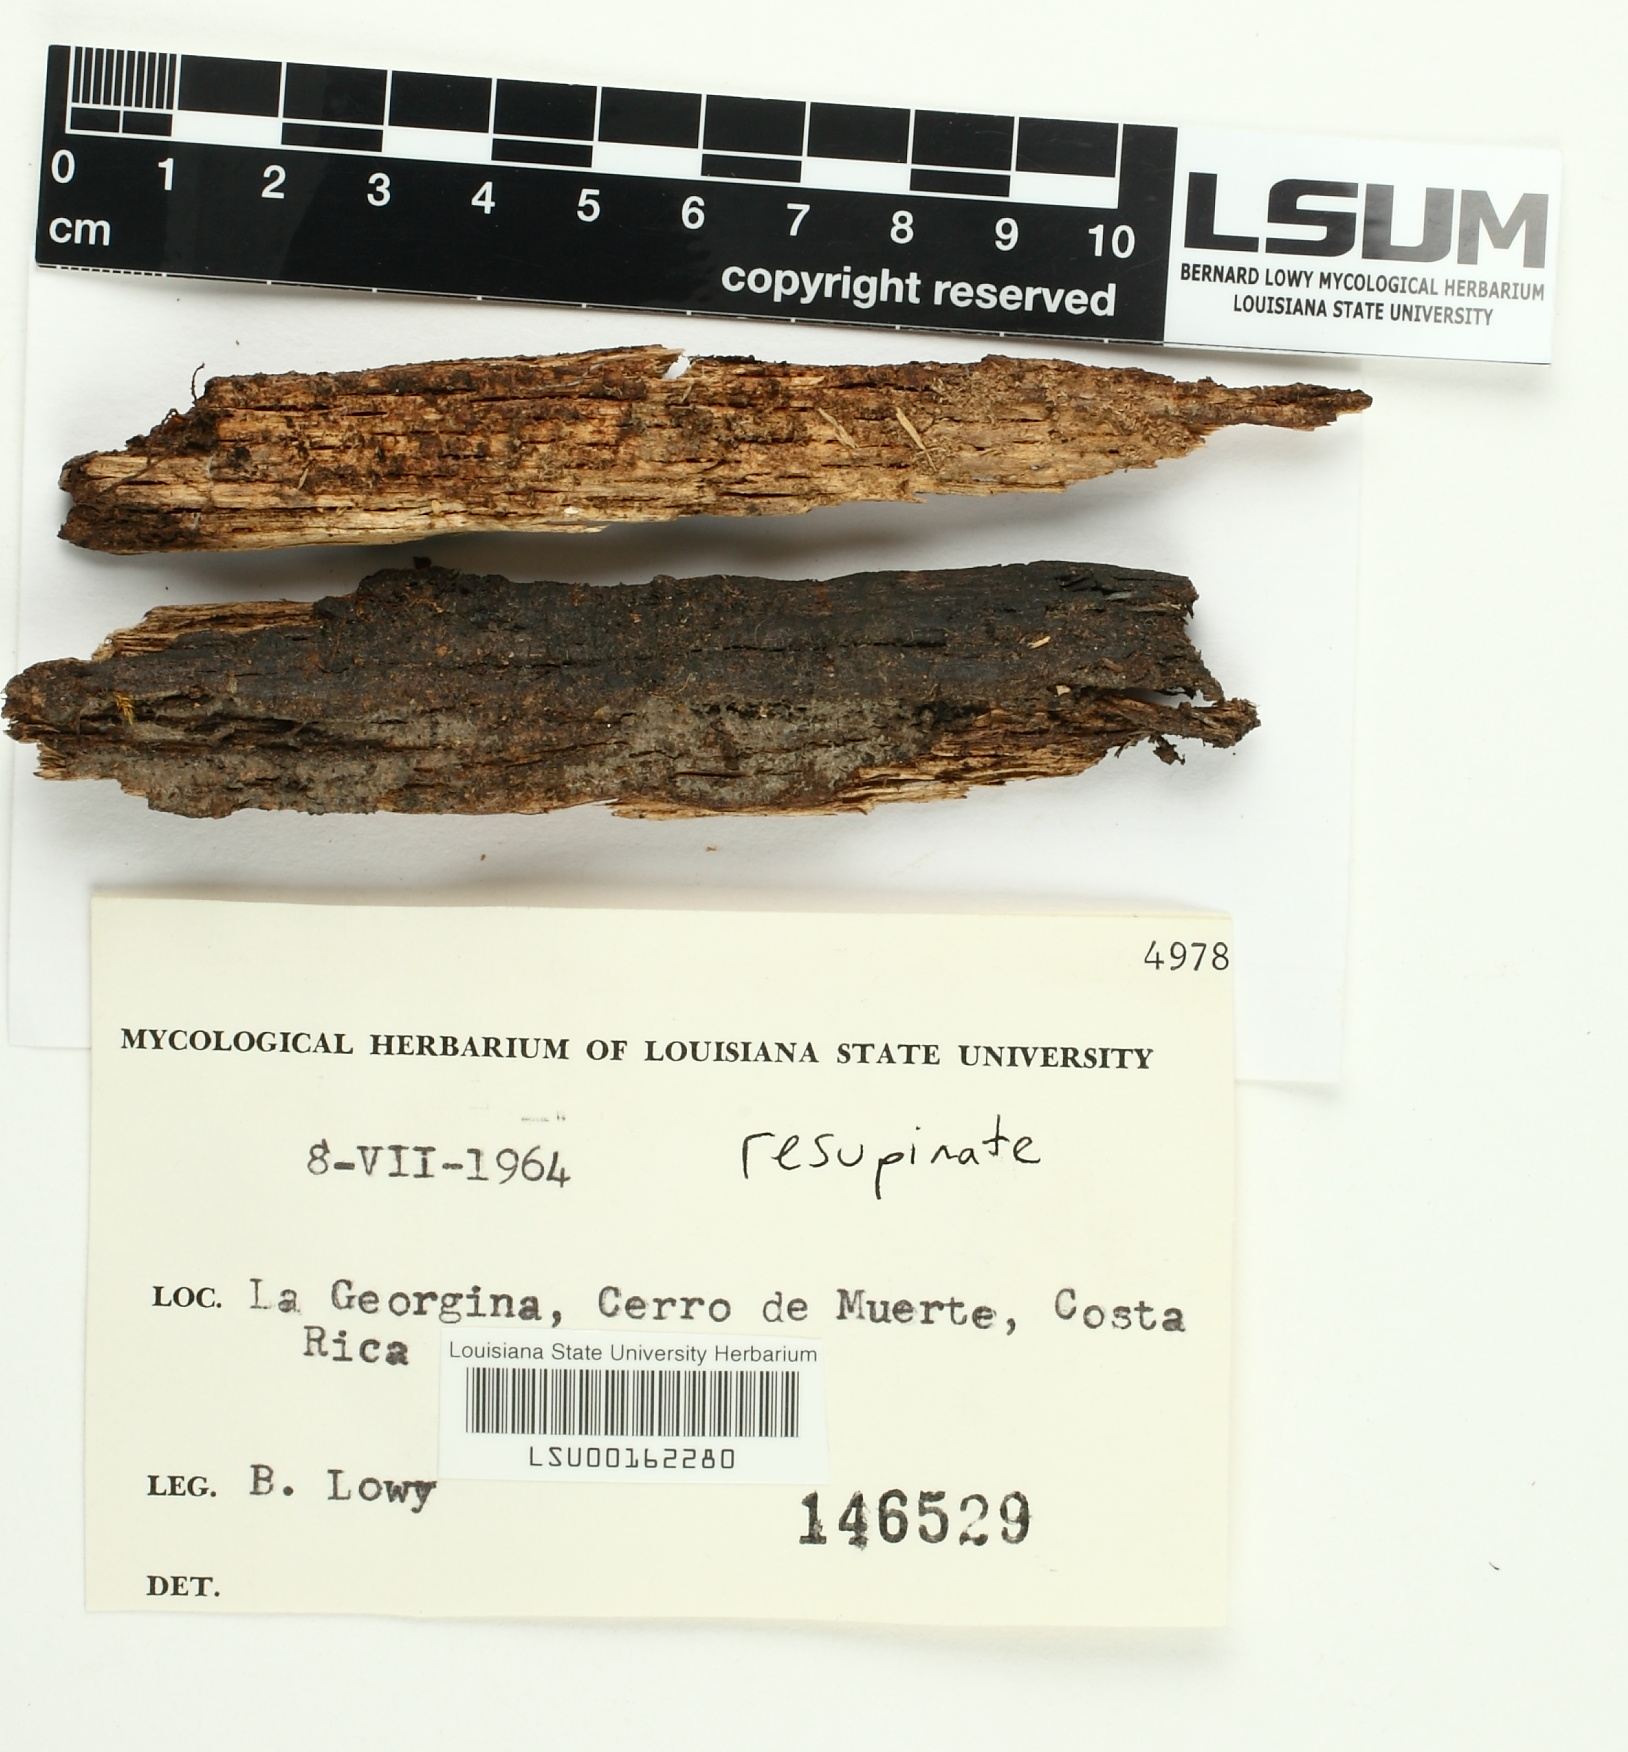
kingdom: Fungi
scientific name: Fungi
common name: Fungi
